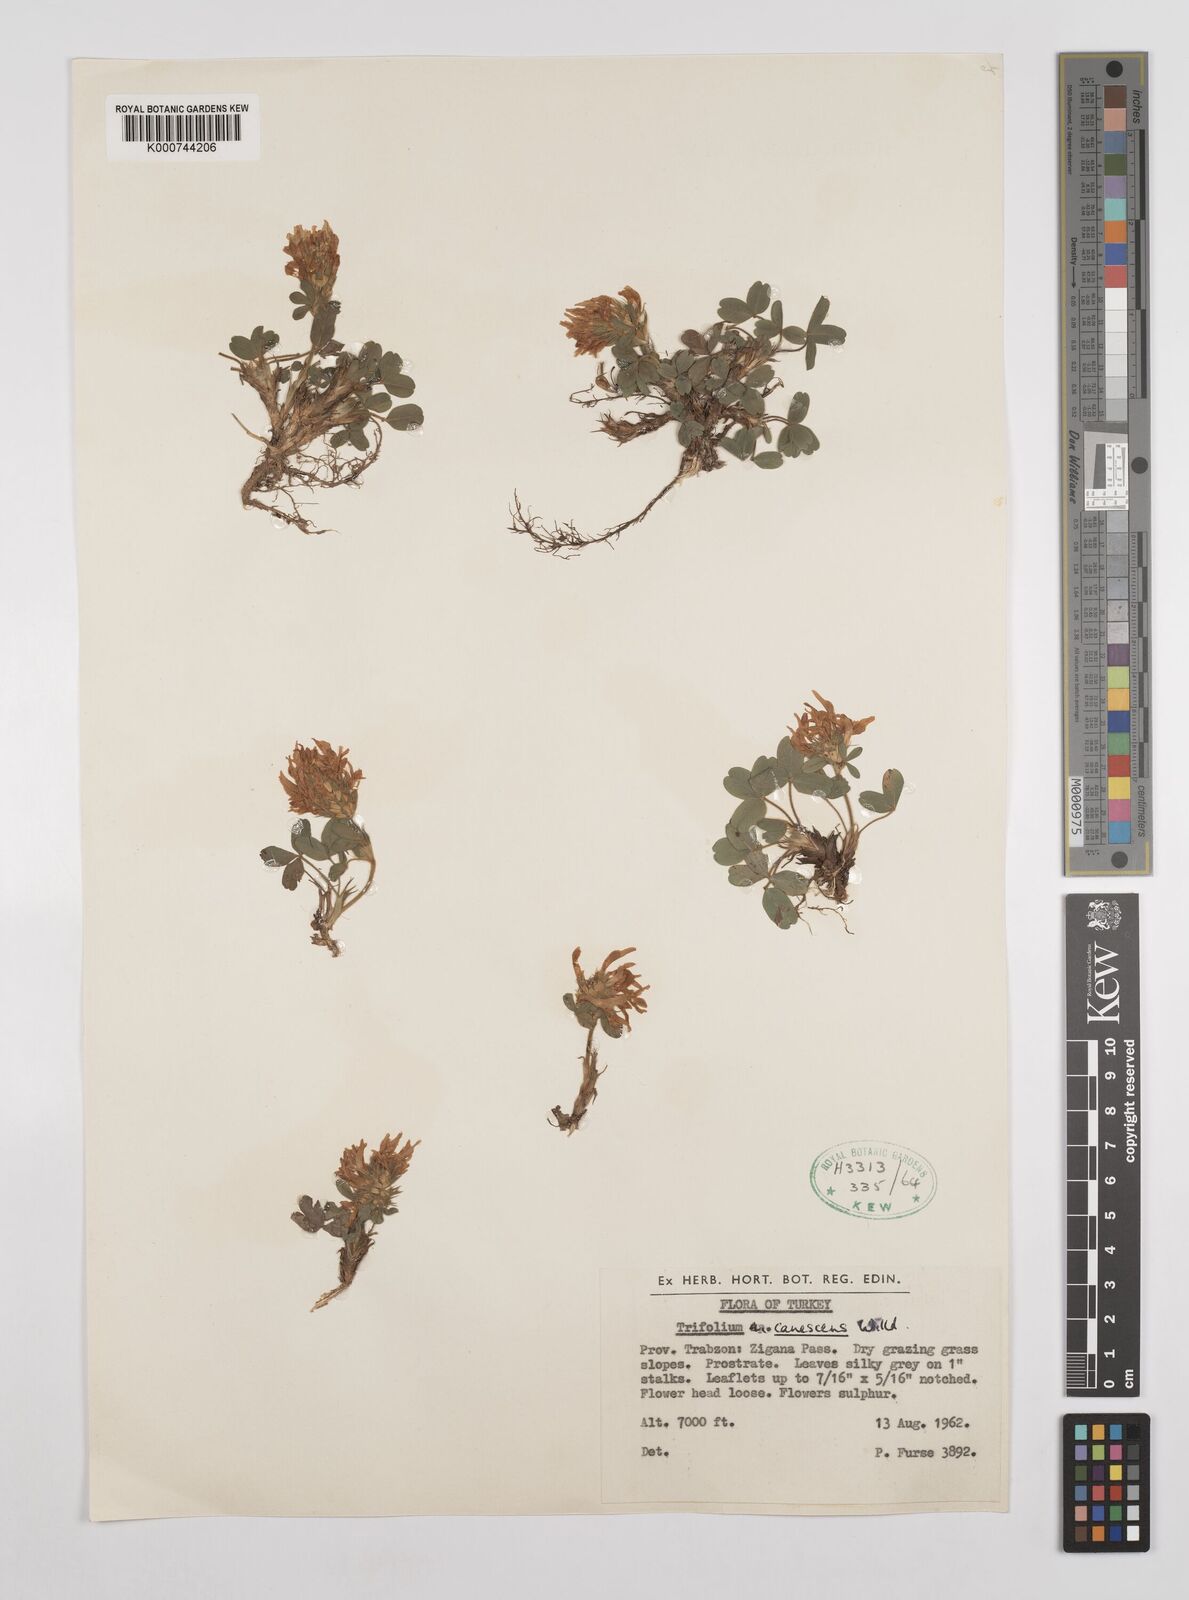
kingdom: Plantae
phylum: Tracheophyta
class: Magnoliopsida
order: Fabales
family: Fabaceae
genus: Trifolium
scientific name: Trifolium canescens
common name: Graying clover
